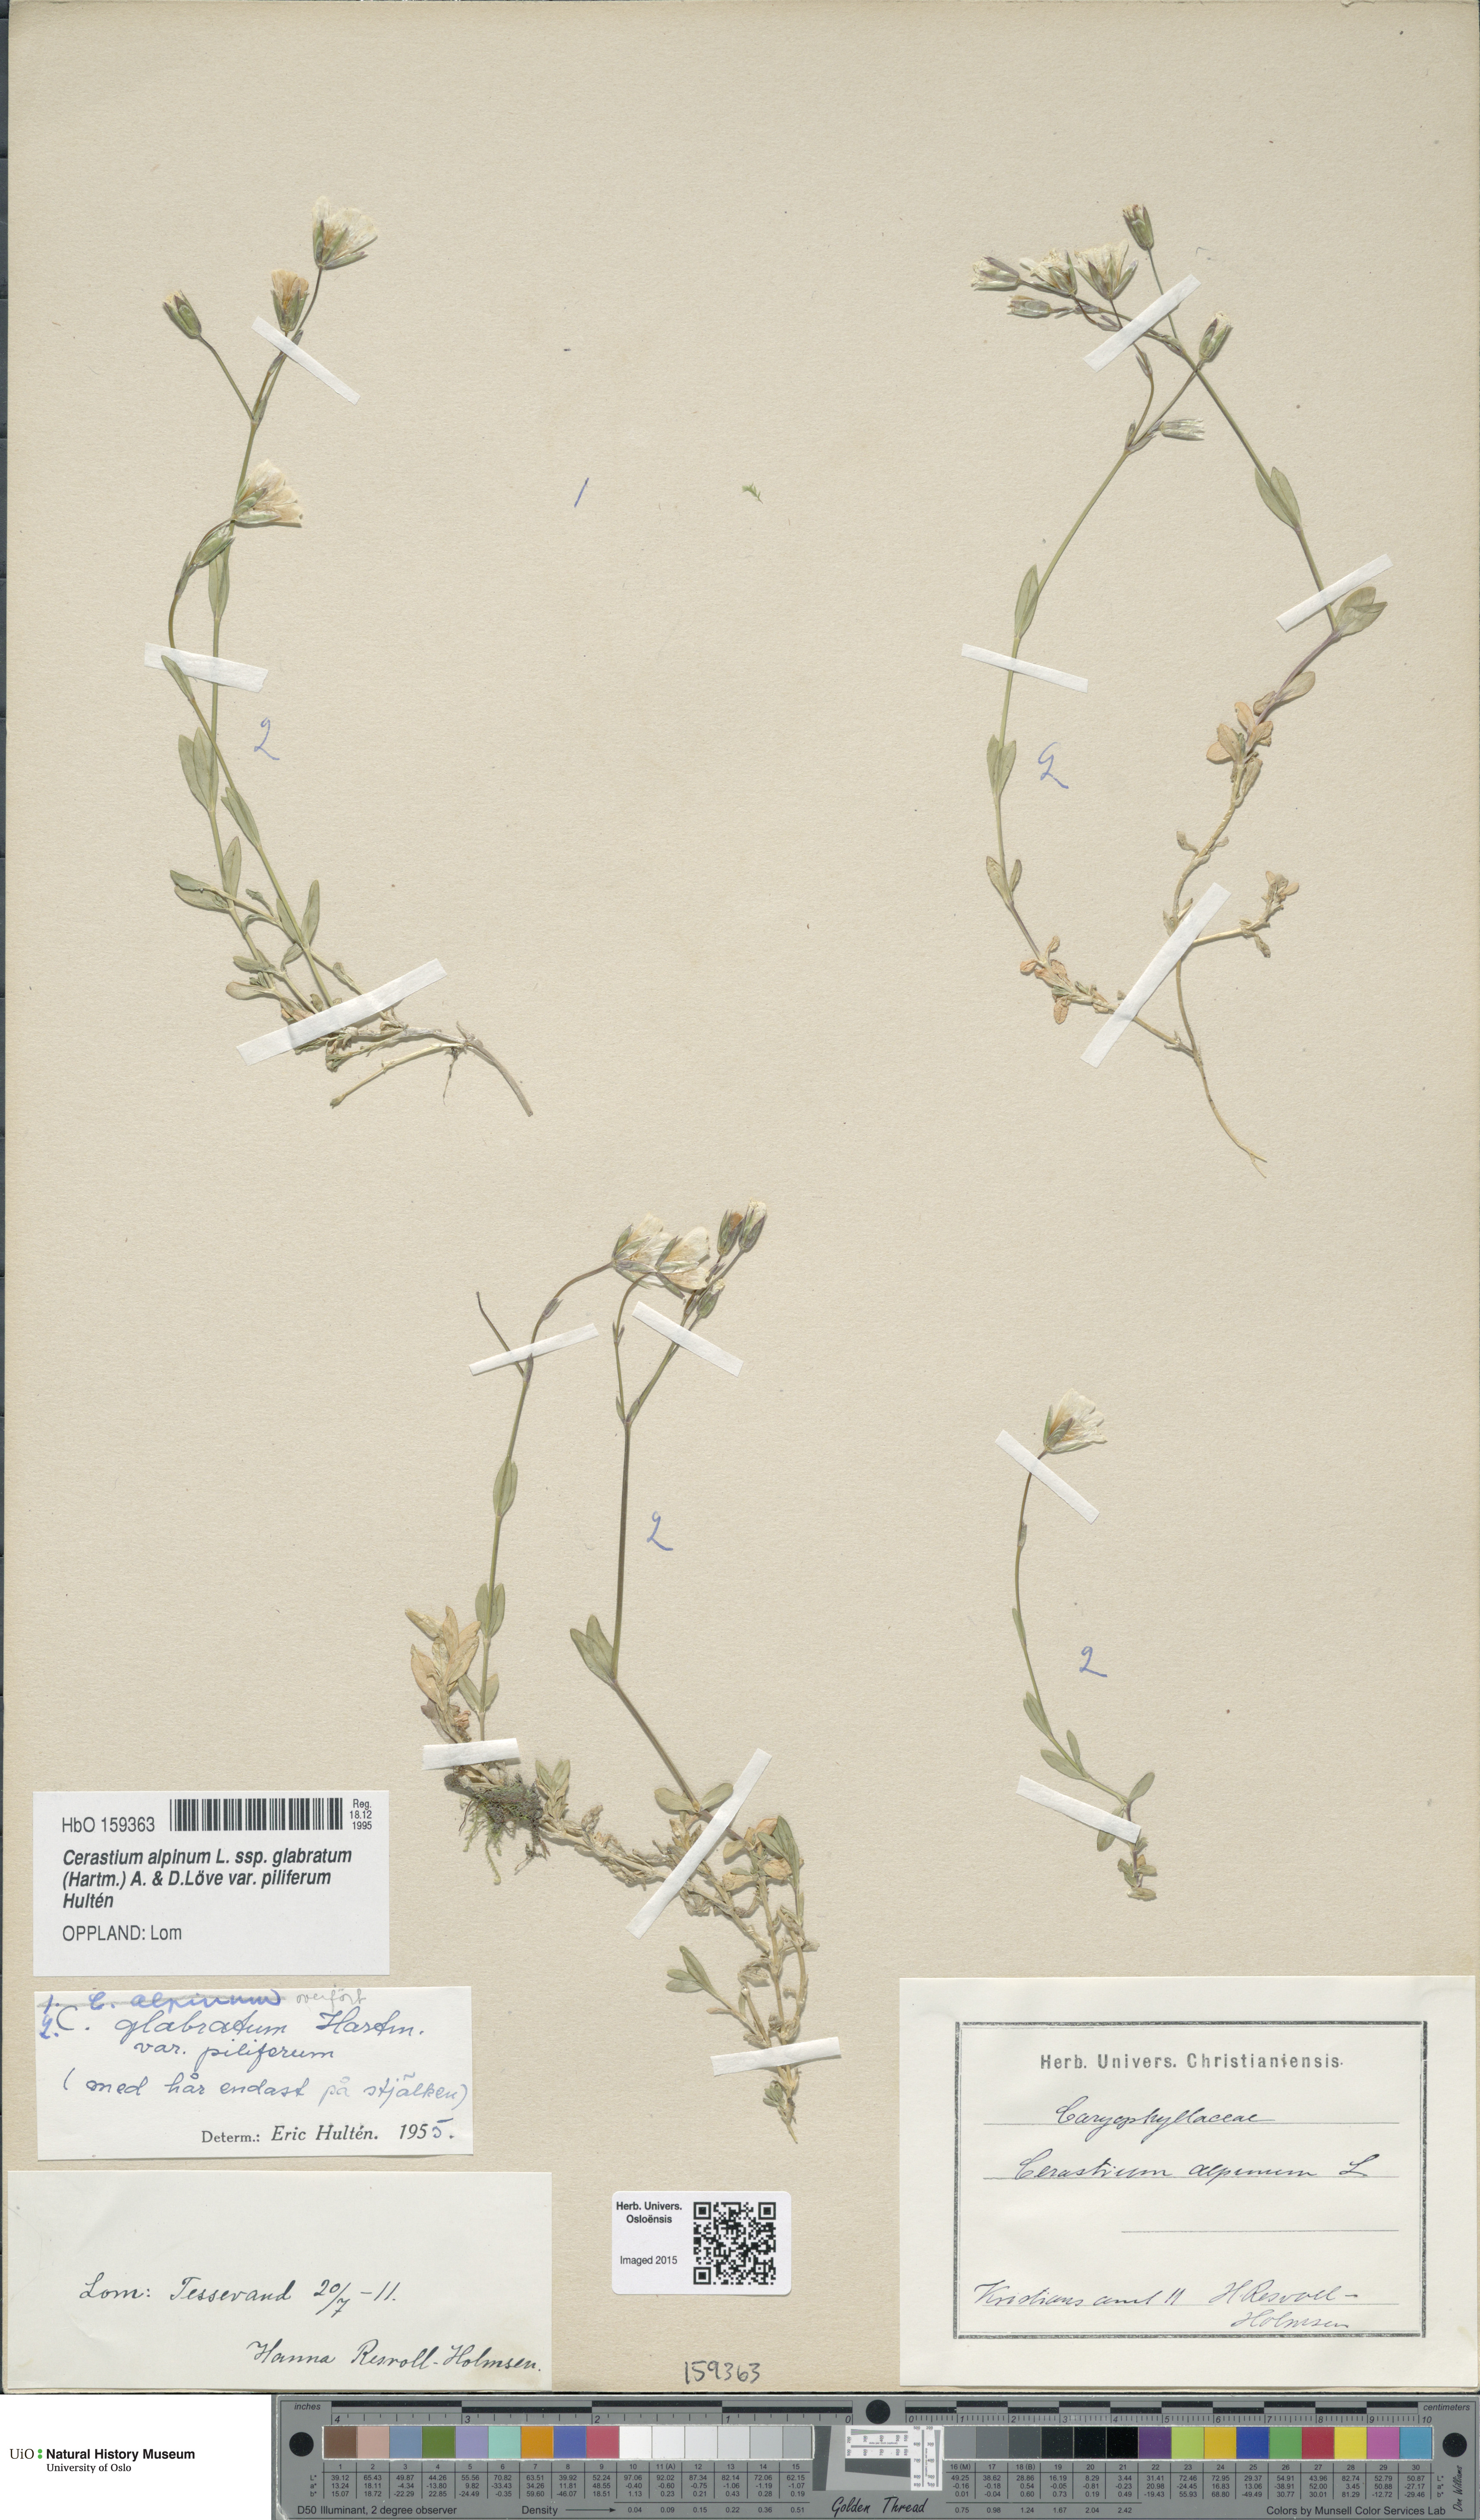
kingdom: Plantae
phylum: Tracheophyta
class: Magnoliopsida
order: Caryophyllales
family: Caryophyllaceae
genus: Cerastium
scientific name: Cerastium alpinum
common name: Alpine mouse-ear
